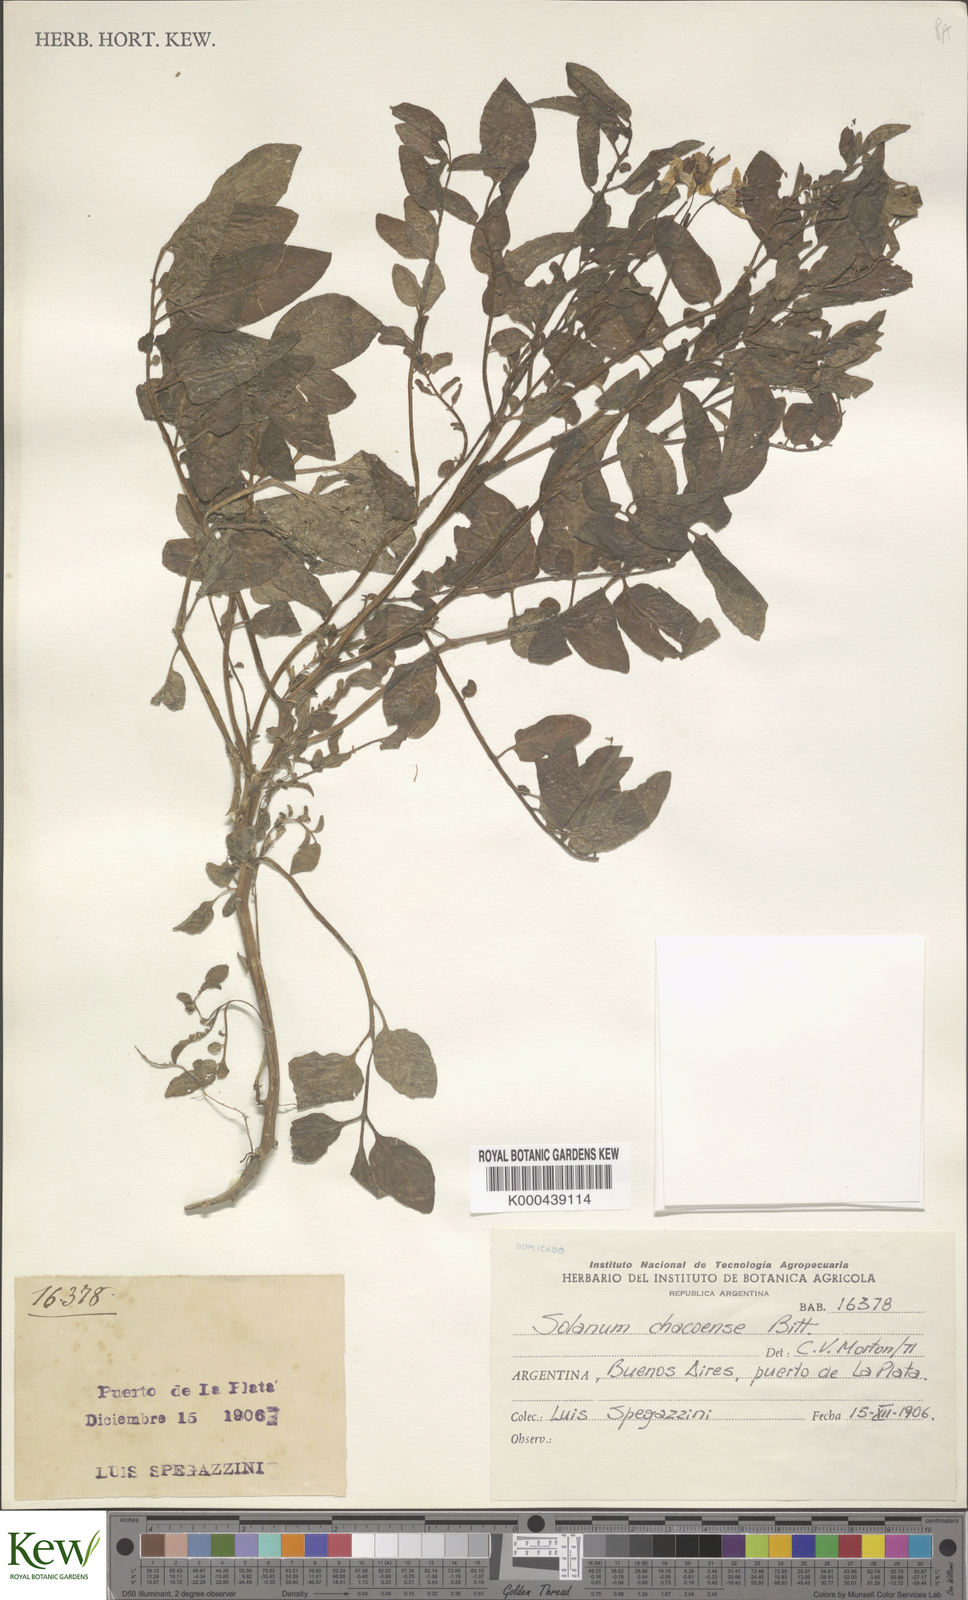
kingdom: Plantae
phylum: Tracheophyta
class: Magnoliopsida
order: Solanales
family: Solanaceae
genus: Solanum
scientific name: Solanum chacoense
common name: Chaco potato
